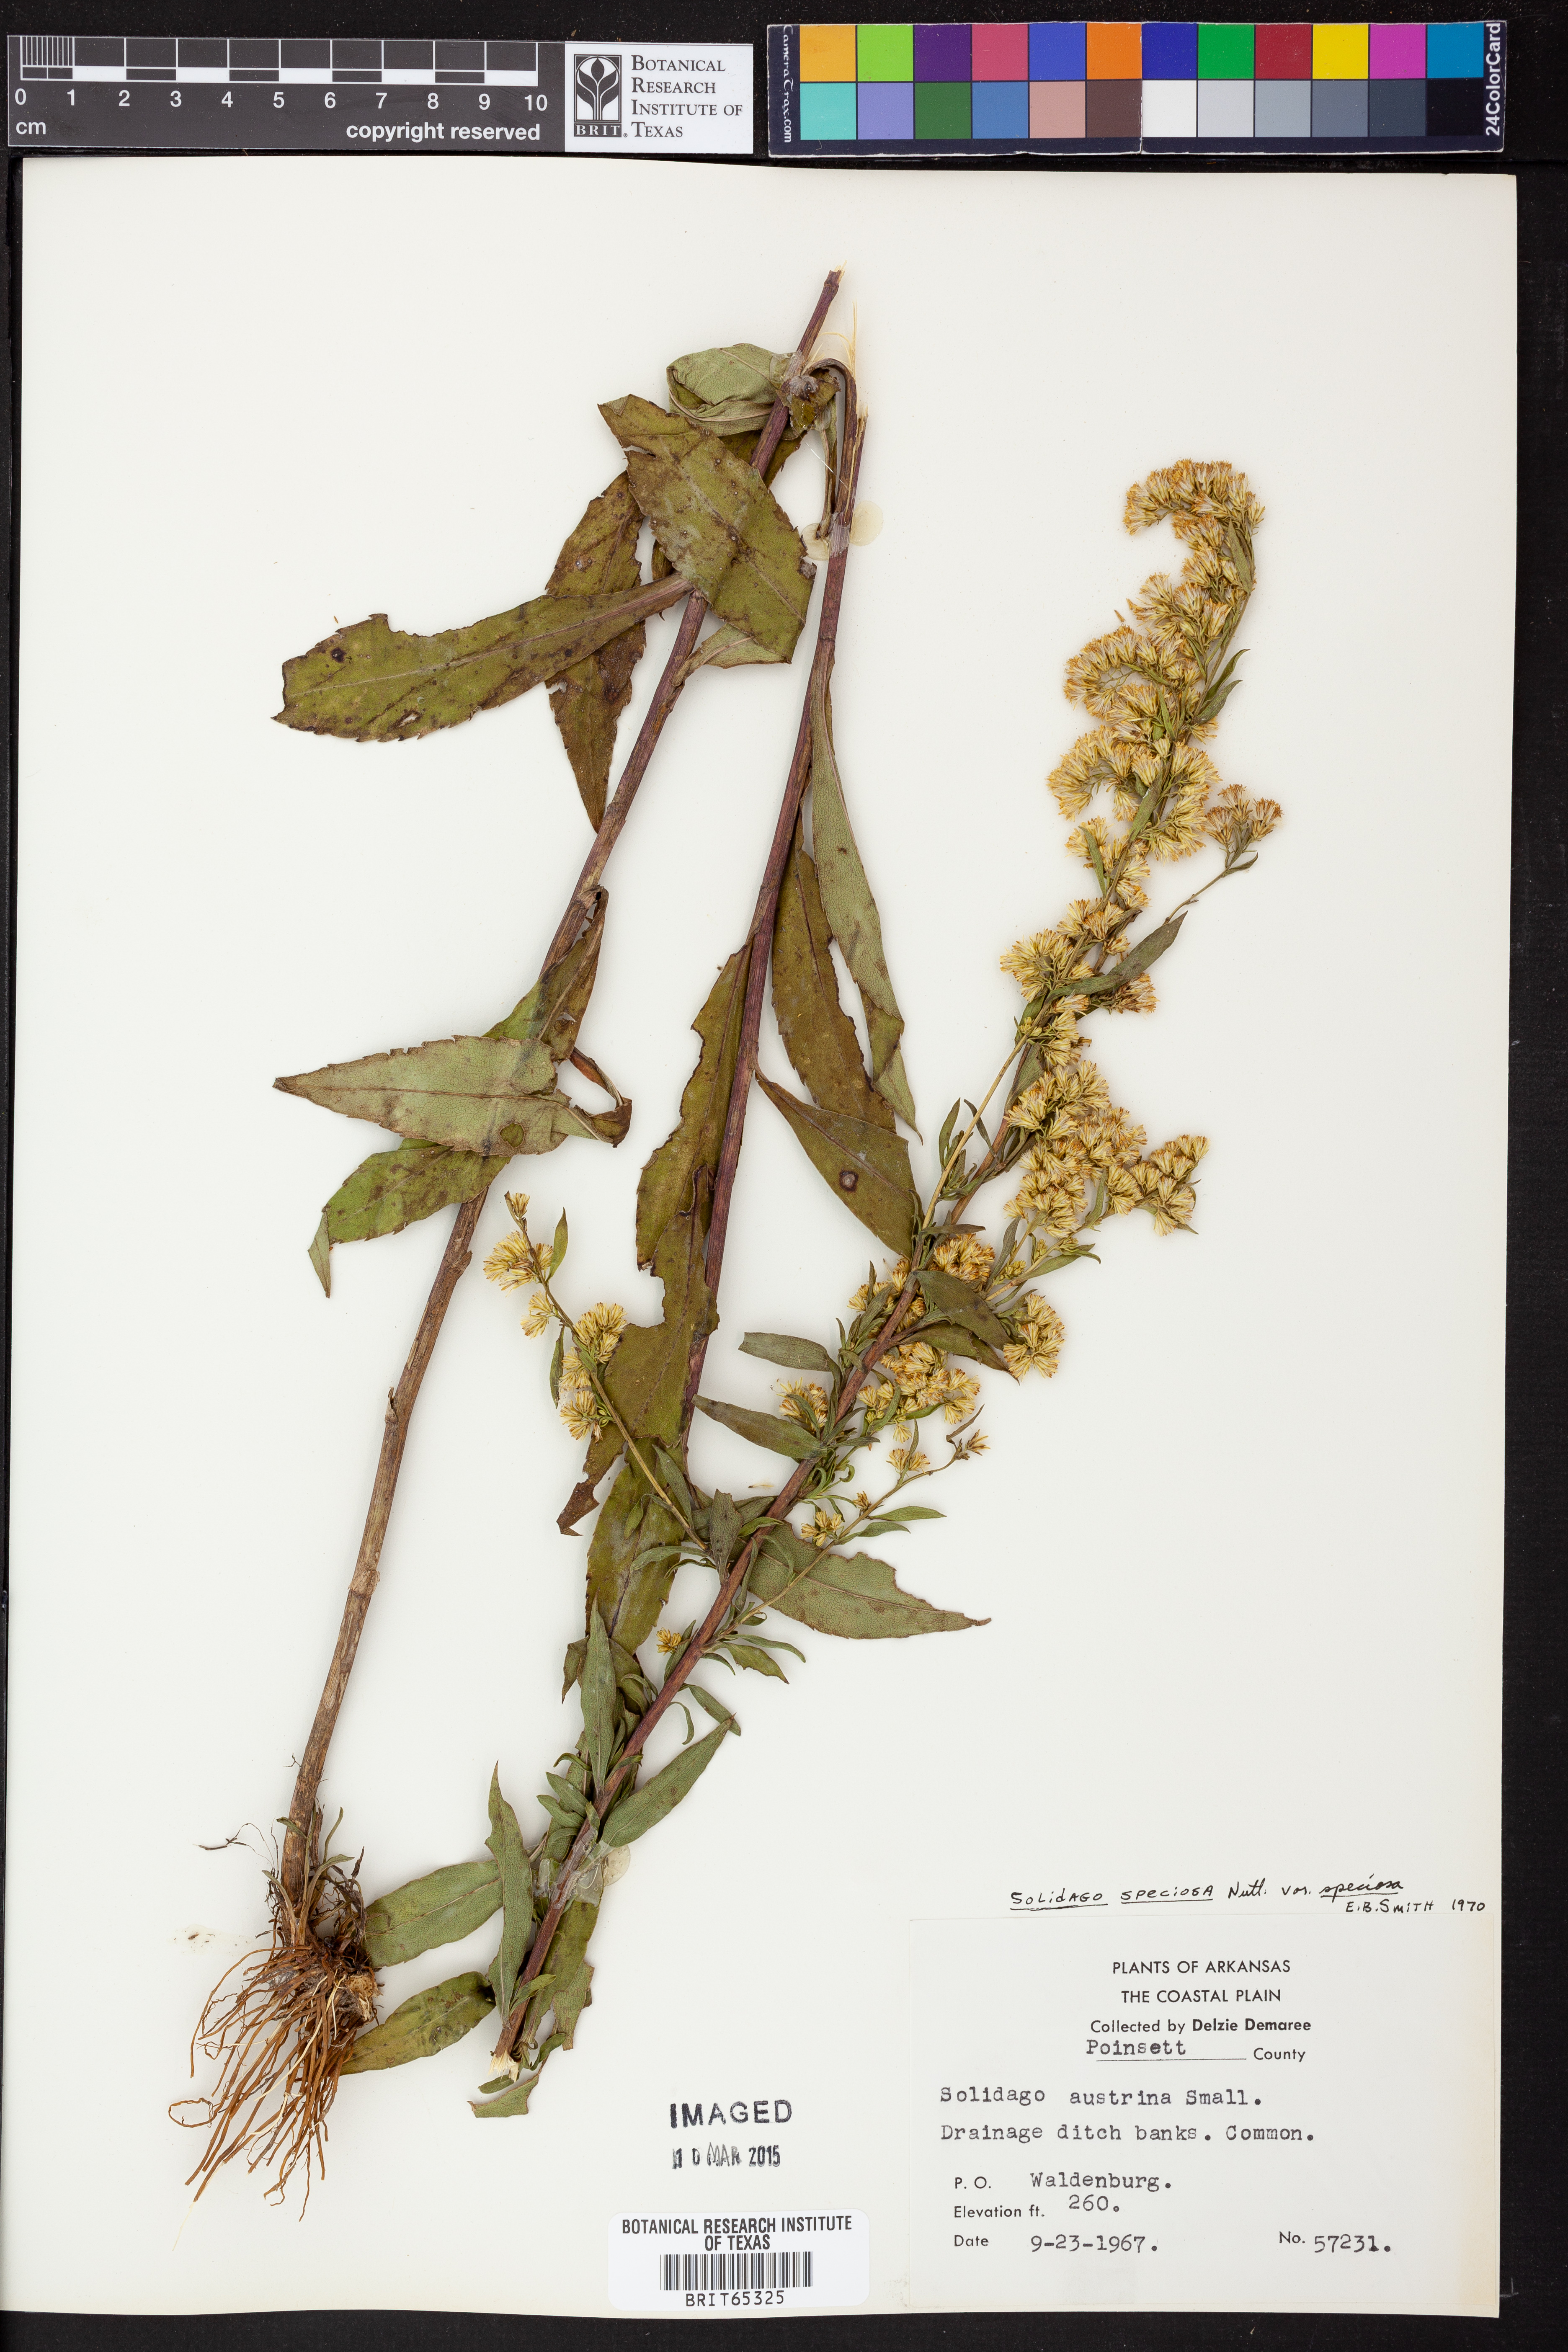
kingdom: Plantae
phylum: Tracheophyta
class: Magnoliopsida
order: Asterales
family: Asteraceae
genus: Solidago
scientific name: Solidago speciosa
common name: Showy goldenrod
